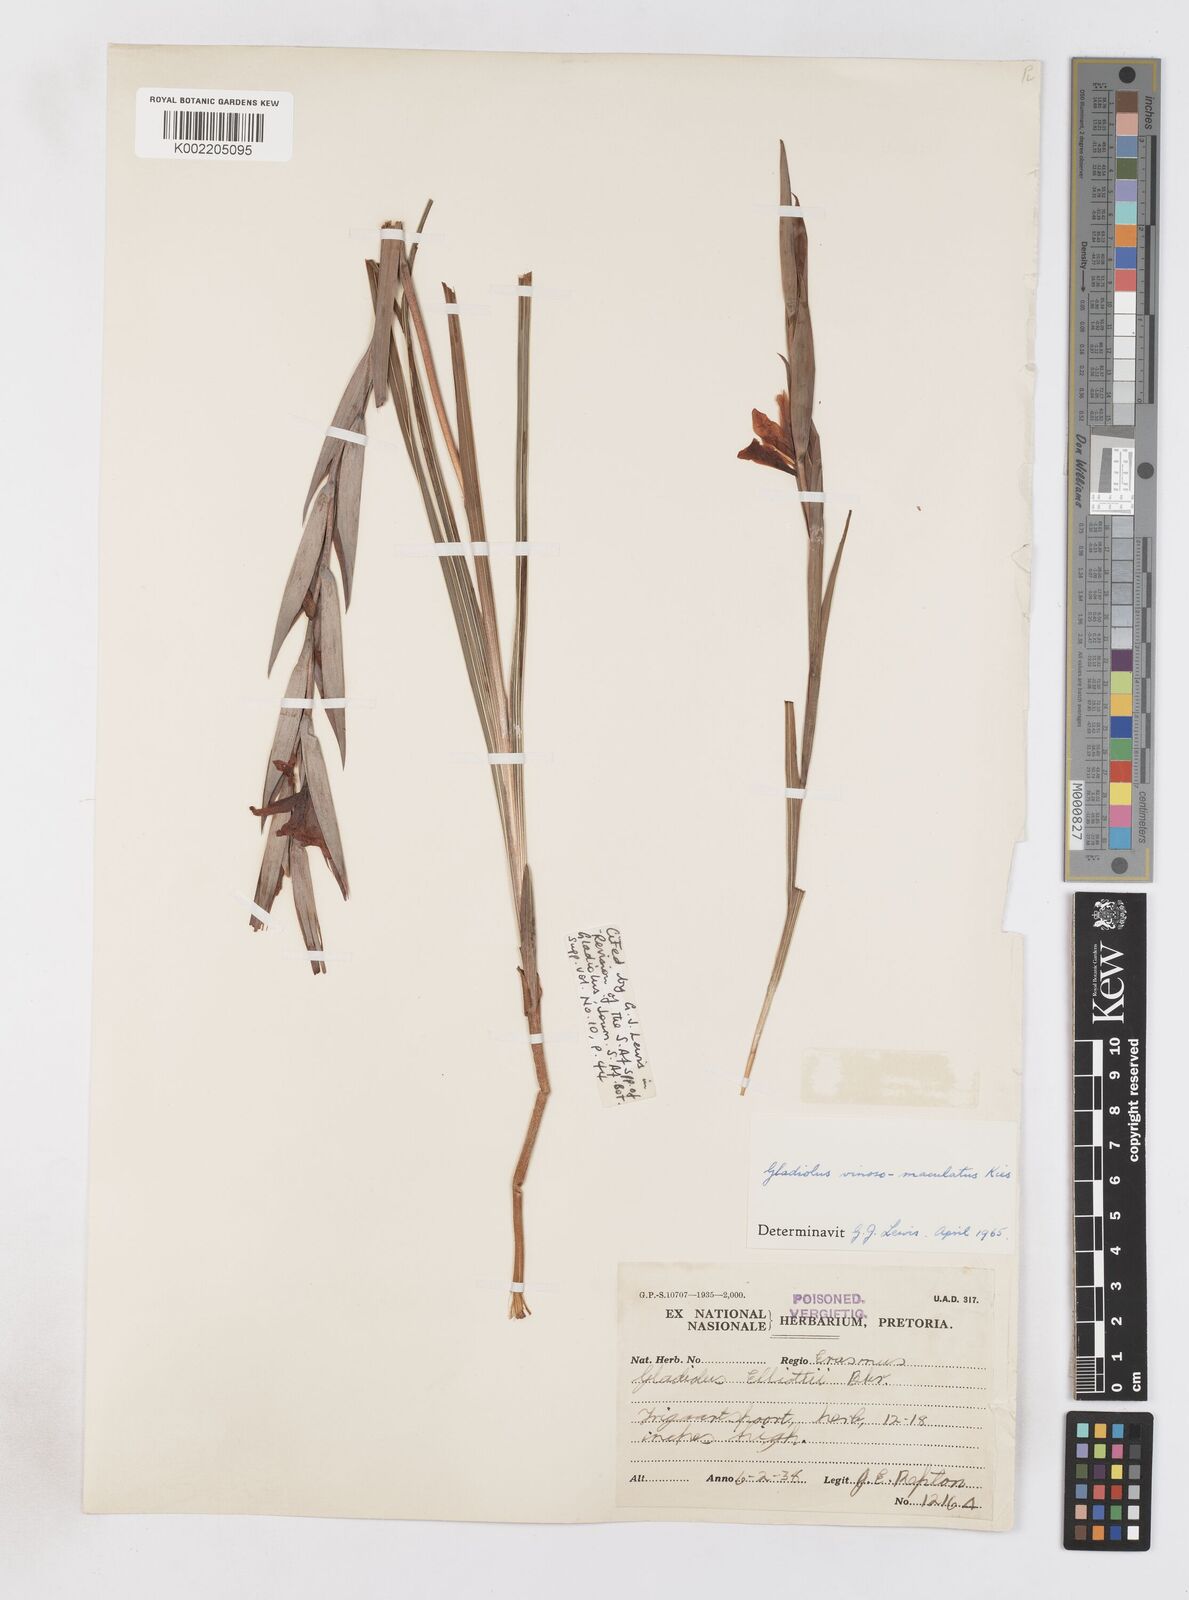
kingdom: Plantae
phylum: Tracheophyta
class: Liliopsida
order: Asparagales
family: Iridaceae
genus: Gladiolus
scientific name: Gladiolus vinosomaculatus
